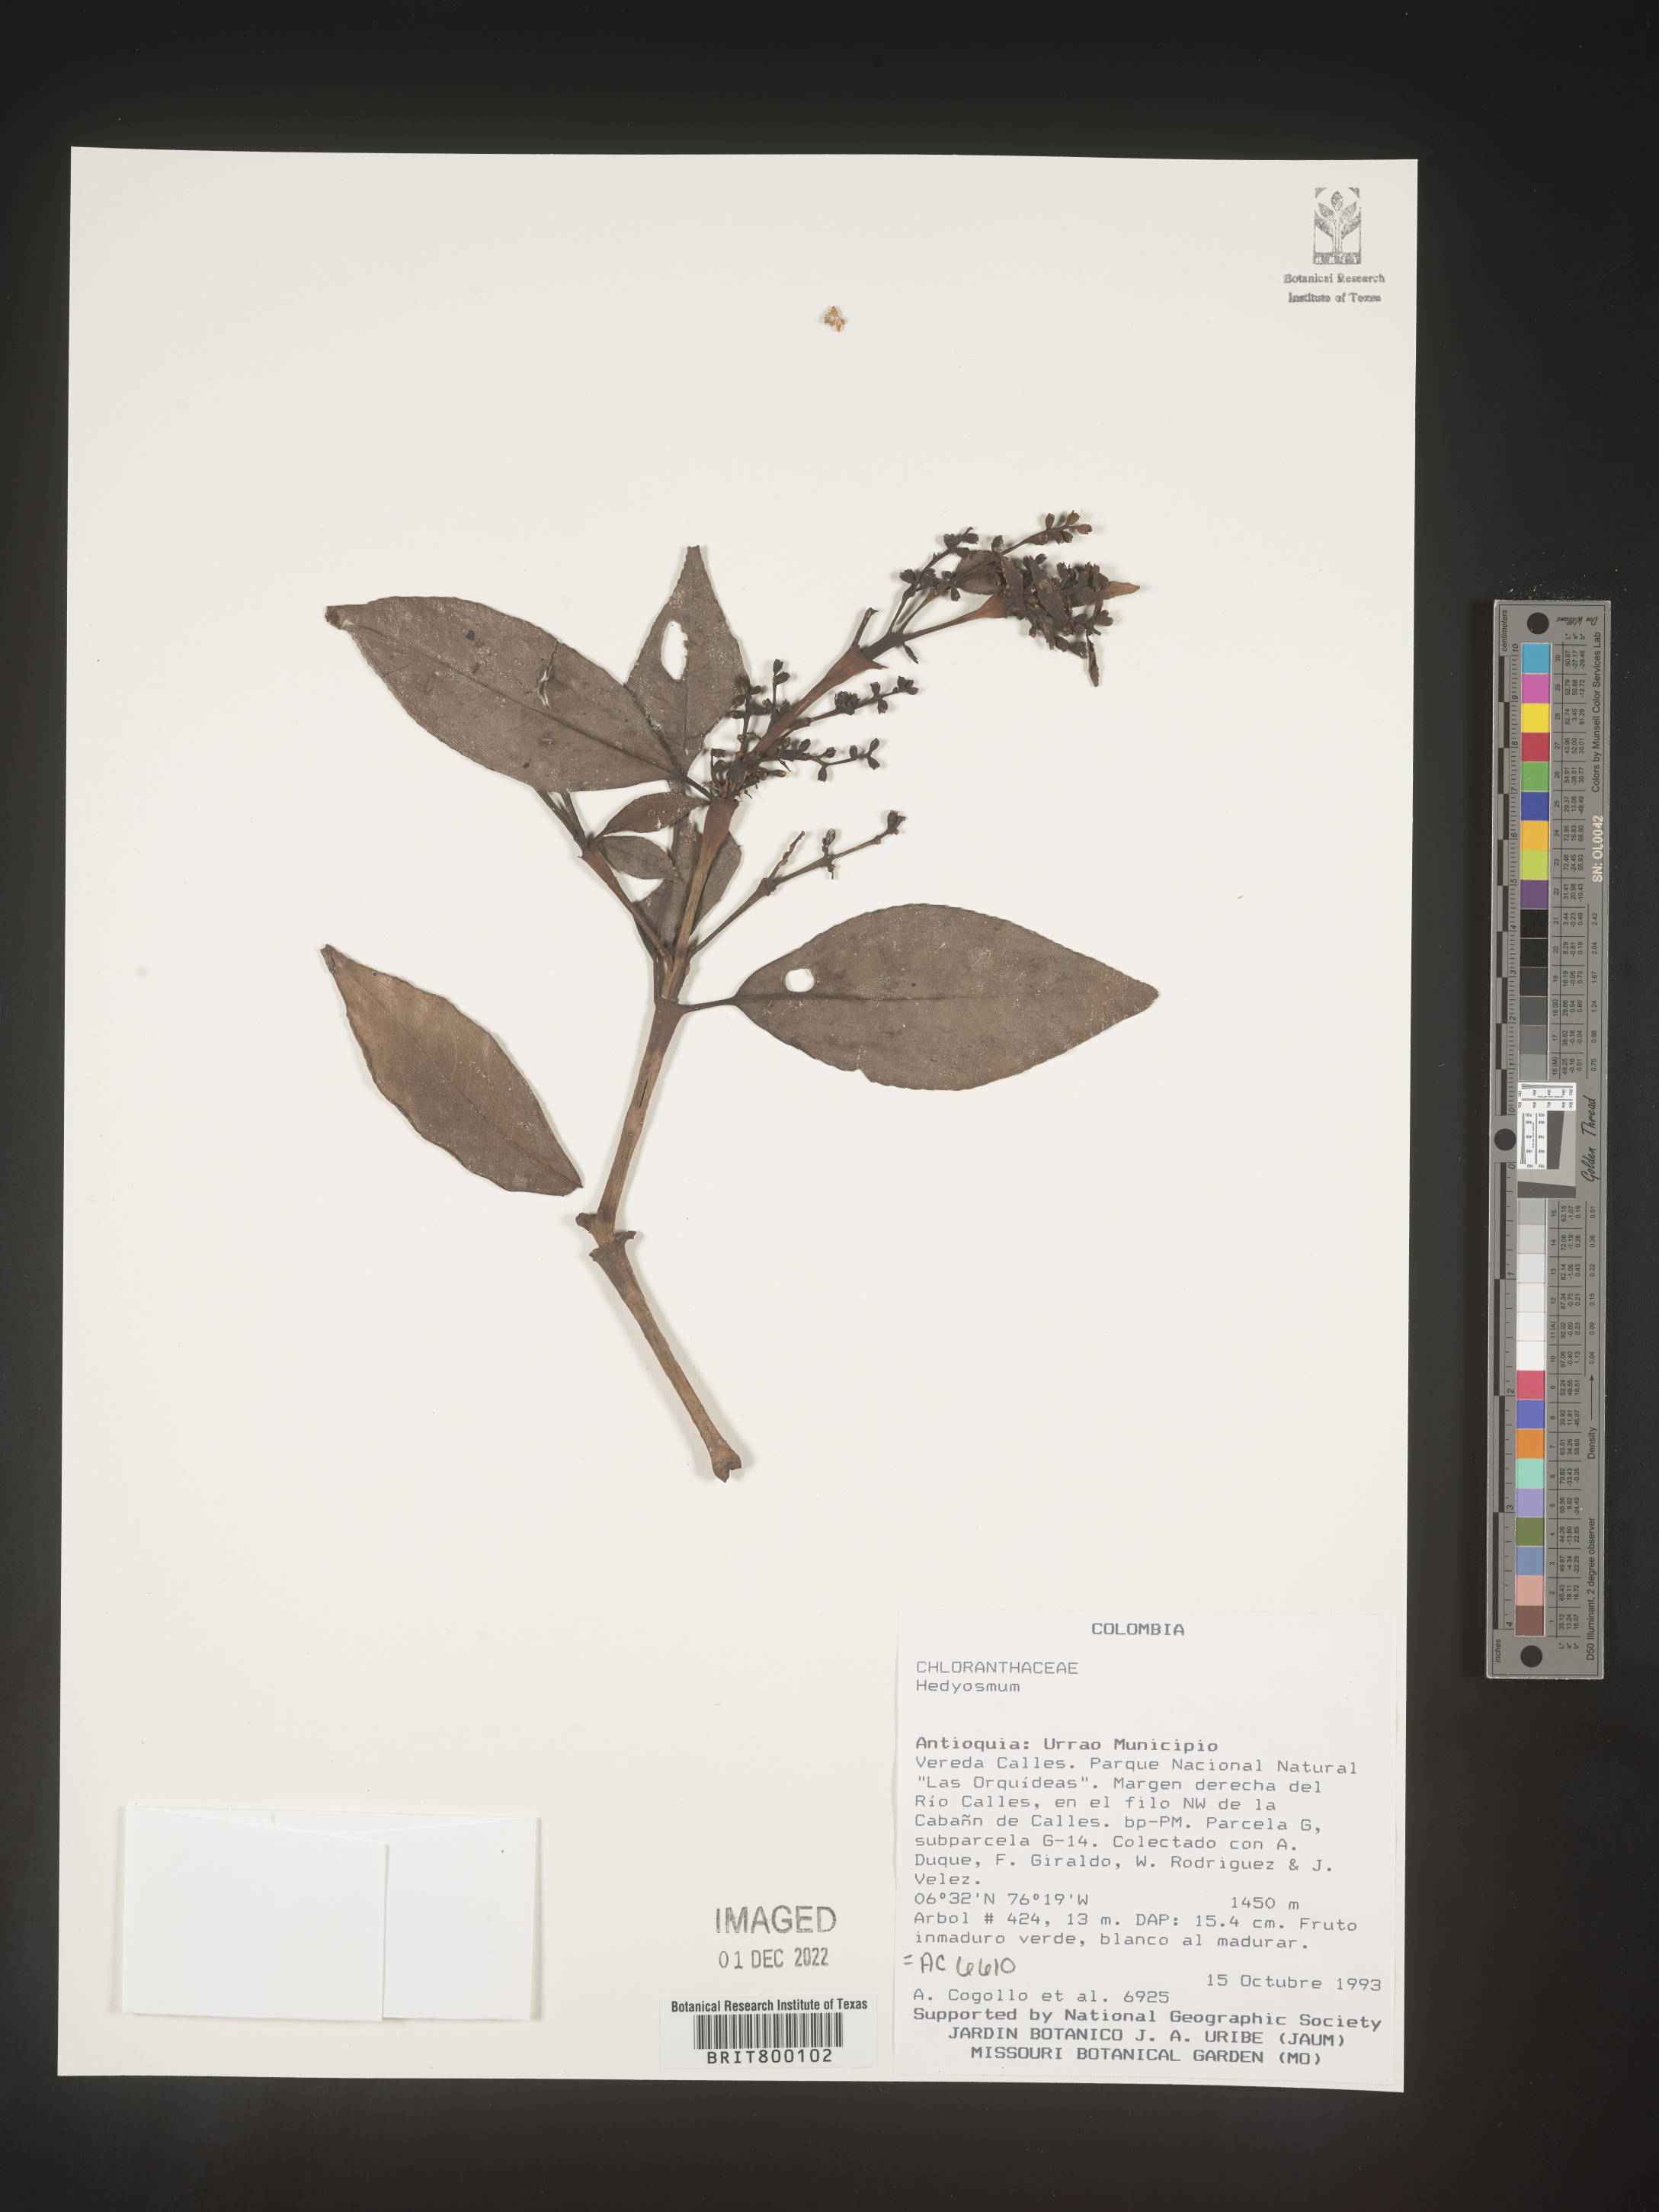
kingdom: Plantae
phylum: Tracheophyta
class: Magnoliopsida
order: Chloranthales
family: Chloranthaceae
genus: Hedyosmum
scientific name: Hedyosmum
